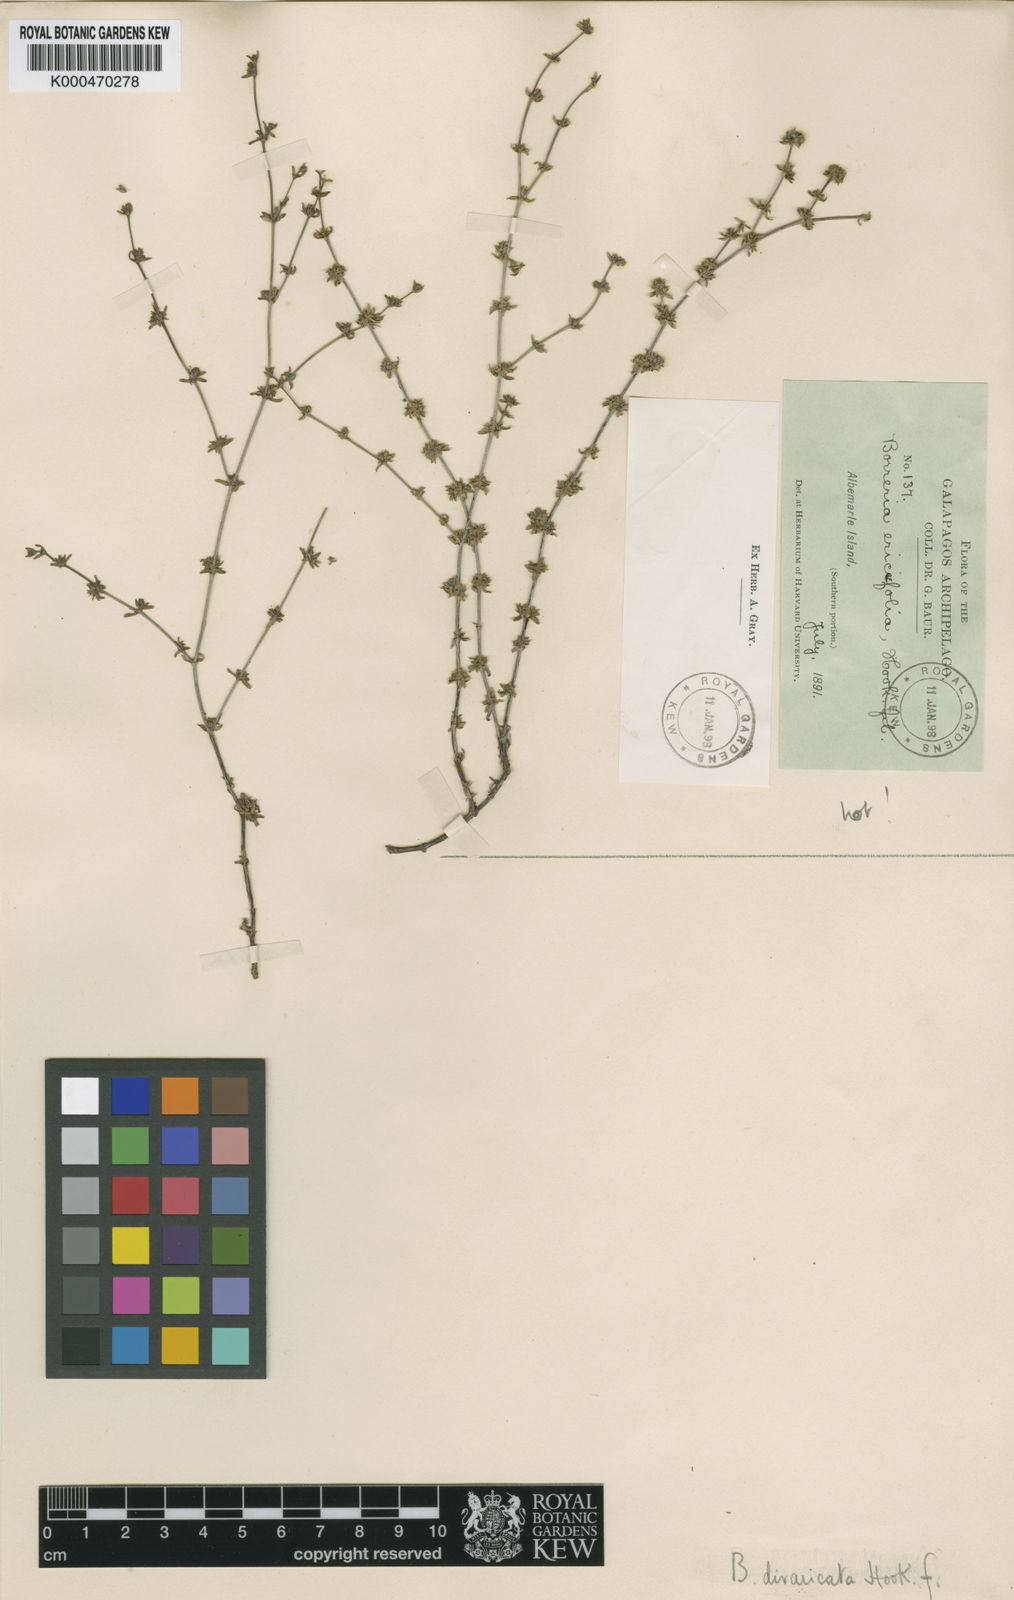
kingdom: Plantae
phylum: Tracheophyta
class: Magnoliopsida
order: Gentianales
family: Rubiaceae
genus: Spermacoce
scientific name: Spermacoce divaricata
